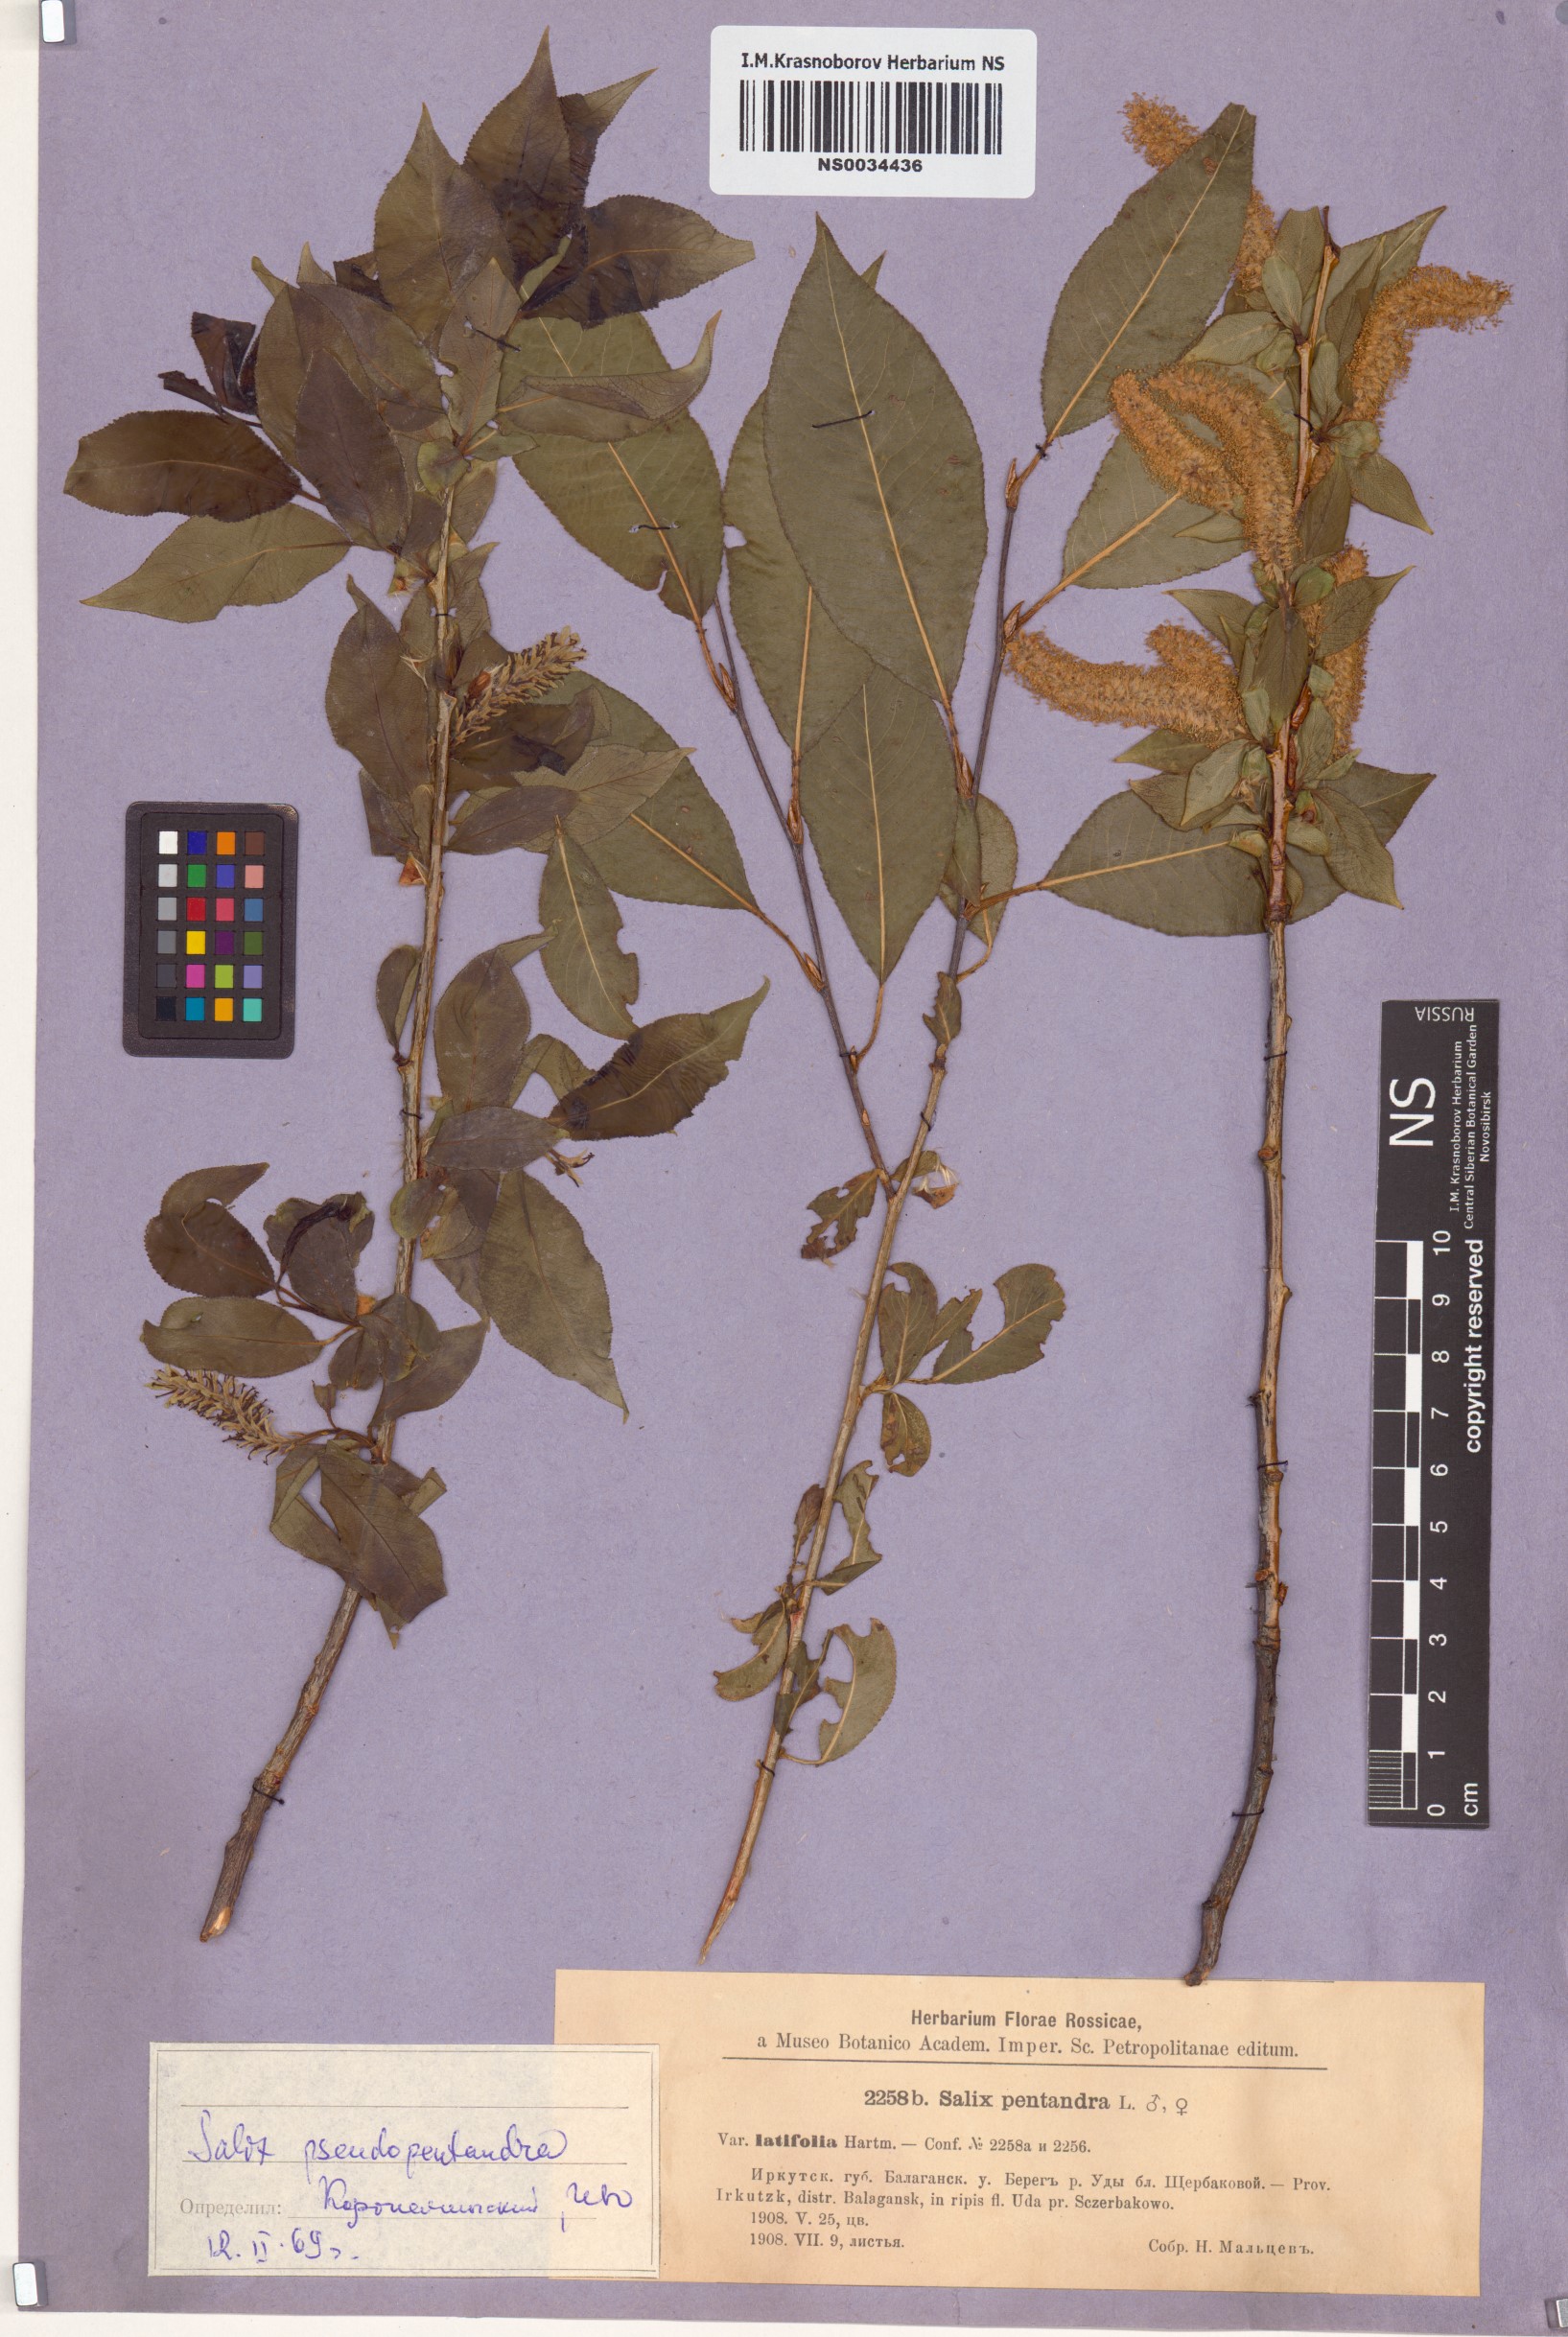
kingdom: Plantae
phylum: Tracheophyta
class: Magnoliopsida
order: Malpighiales
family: Salicaceae
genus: Salix
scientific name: Salix pseudopentandra
